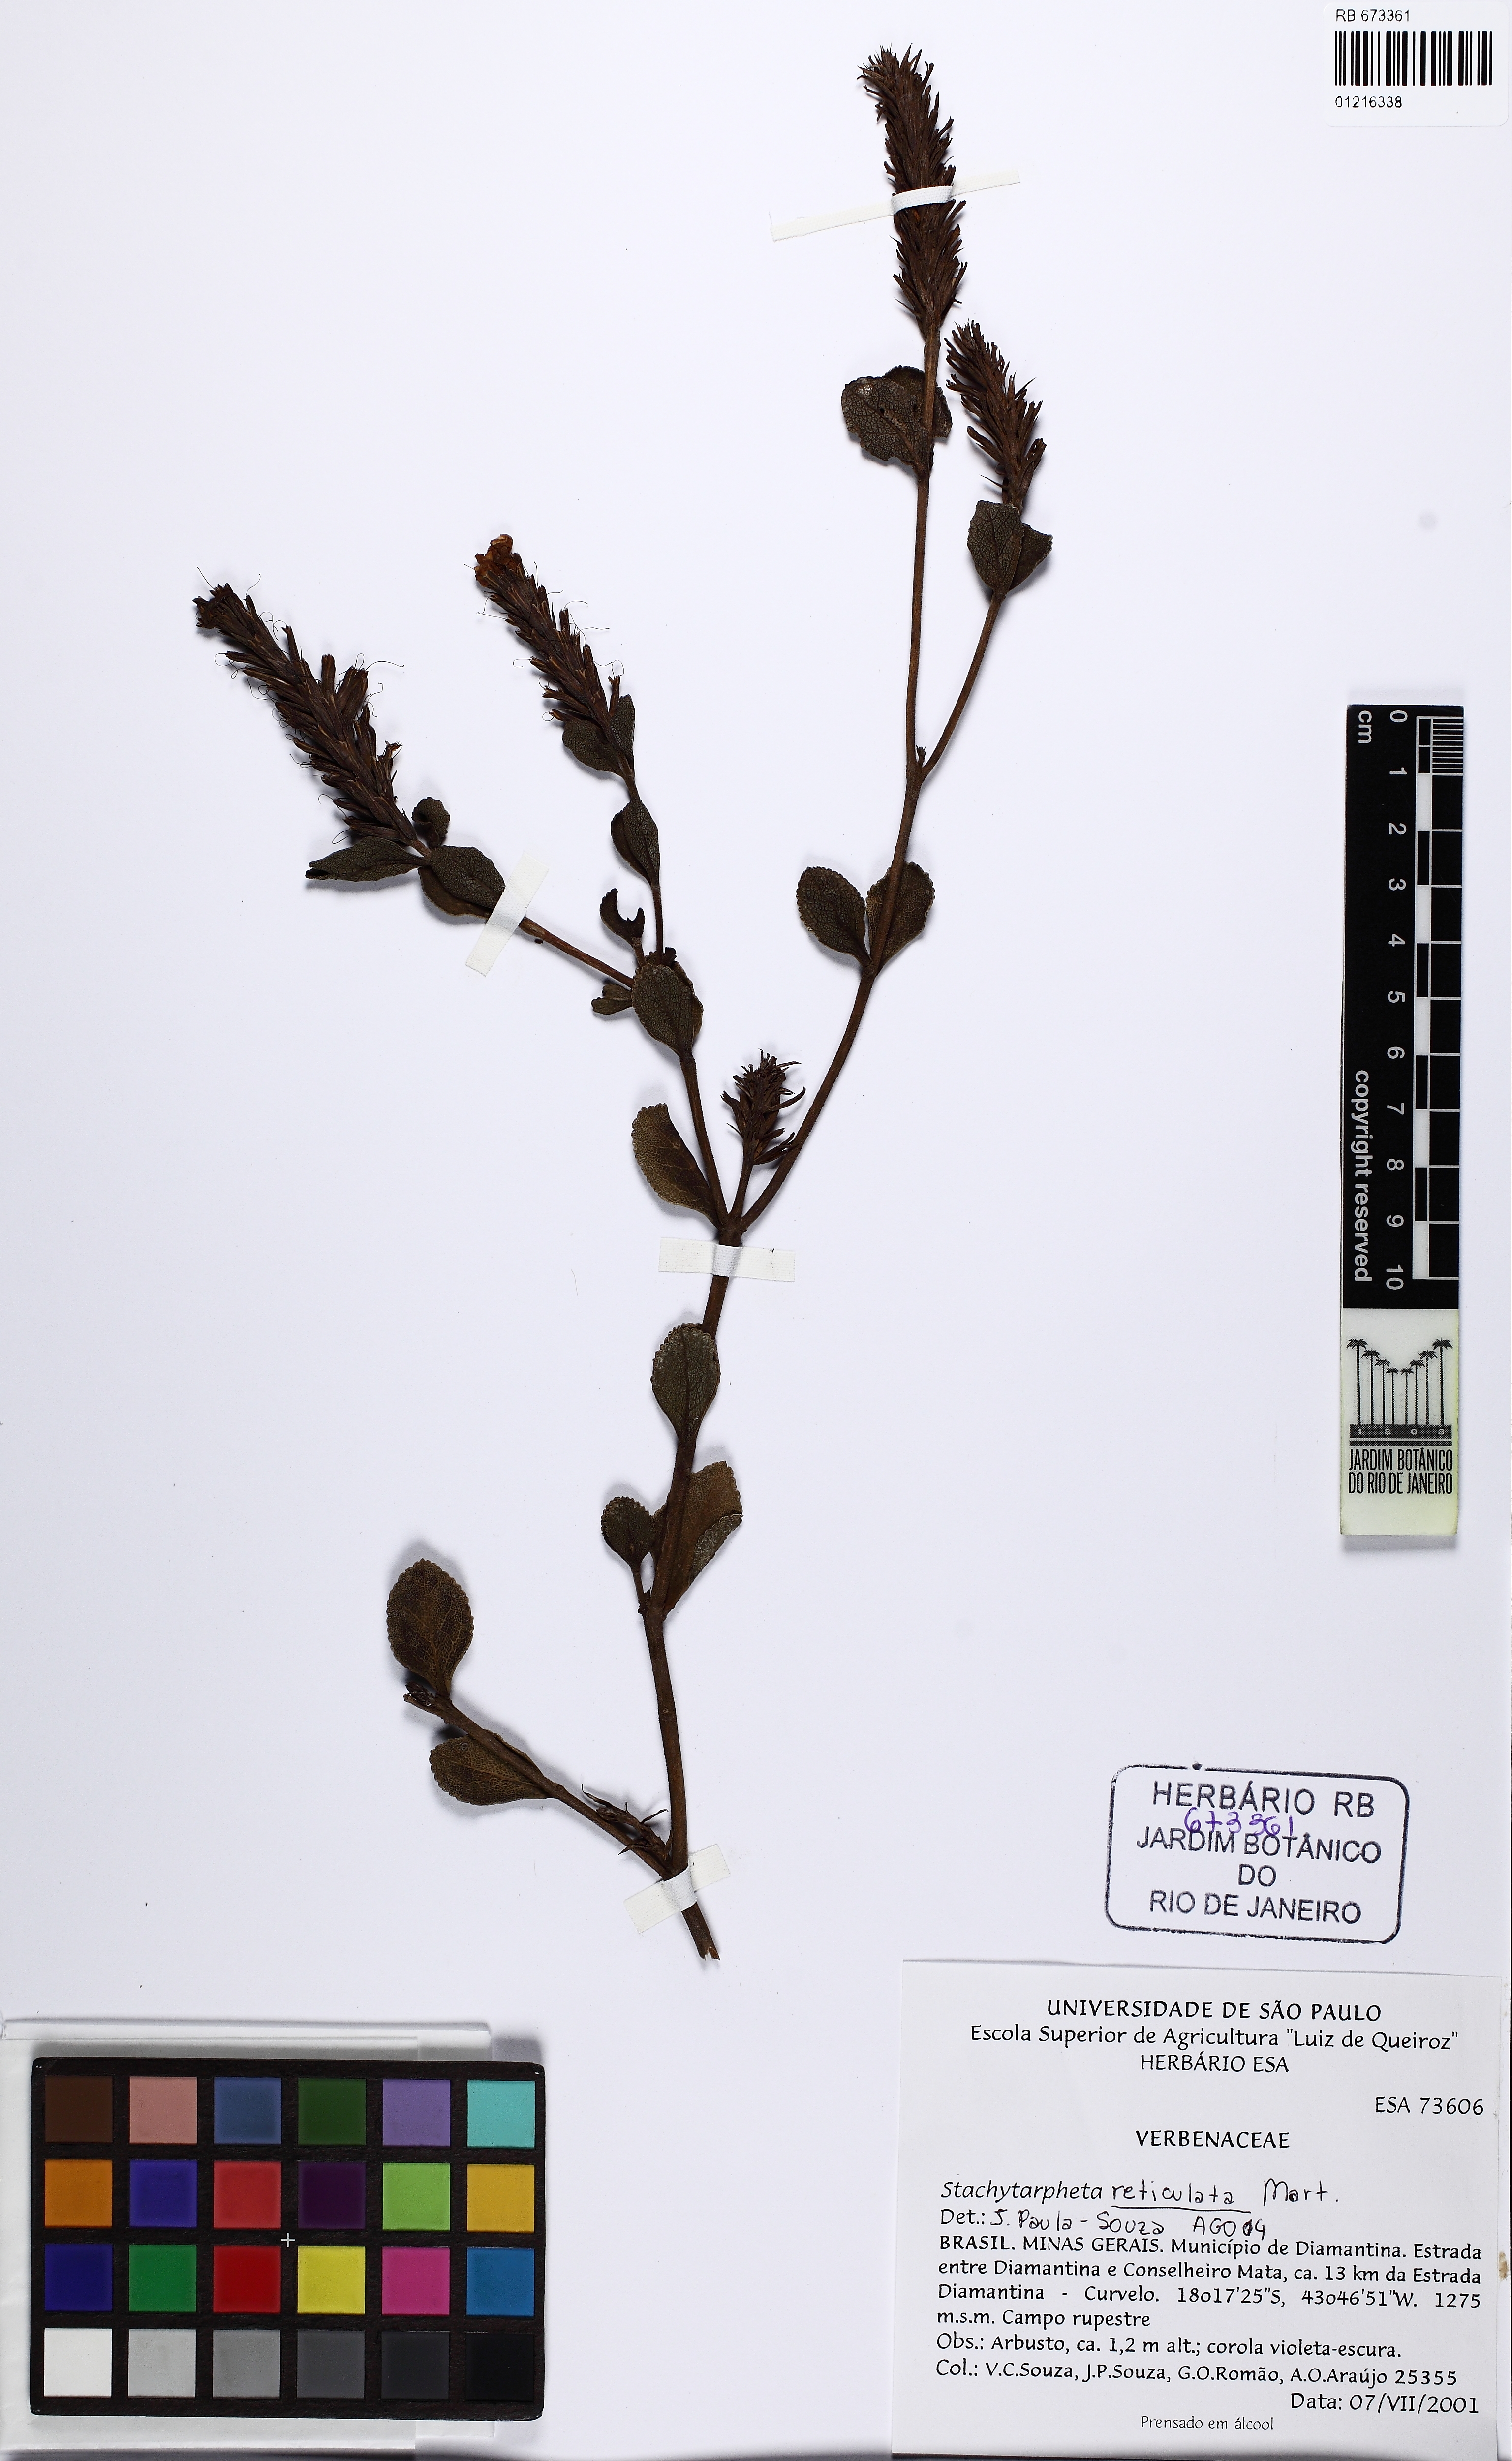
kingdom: Plantae
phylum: Tracheophyta
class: Magnoliopsida
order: Lamiales
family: Verbenaceae
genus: Stachytarpheta
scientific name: Stachytarpheta reticulata
